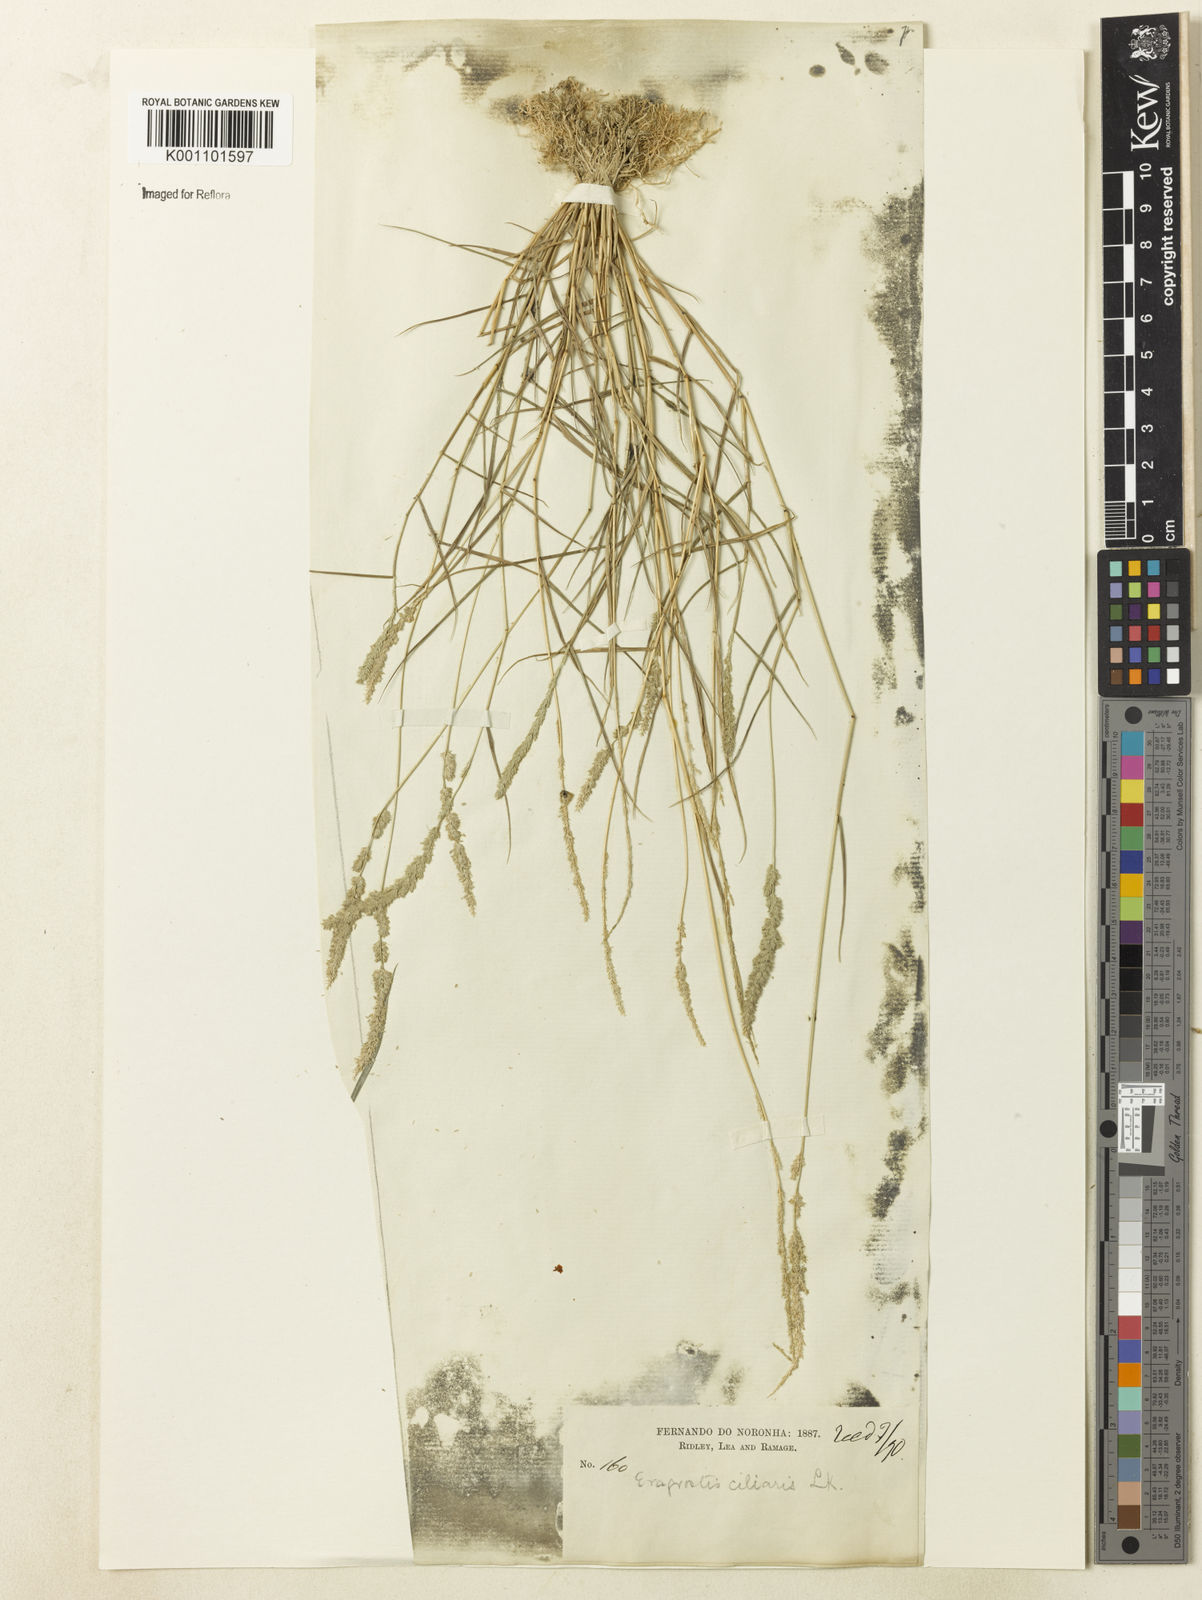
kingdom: Plantae
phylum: Tracheophyta
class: Liliopsida
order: Poales
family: Poaceae
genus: Eragrostis
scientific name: Eragrostis ciliaris
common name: Gophertail lovegrass
